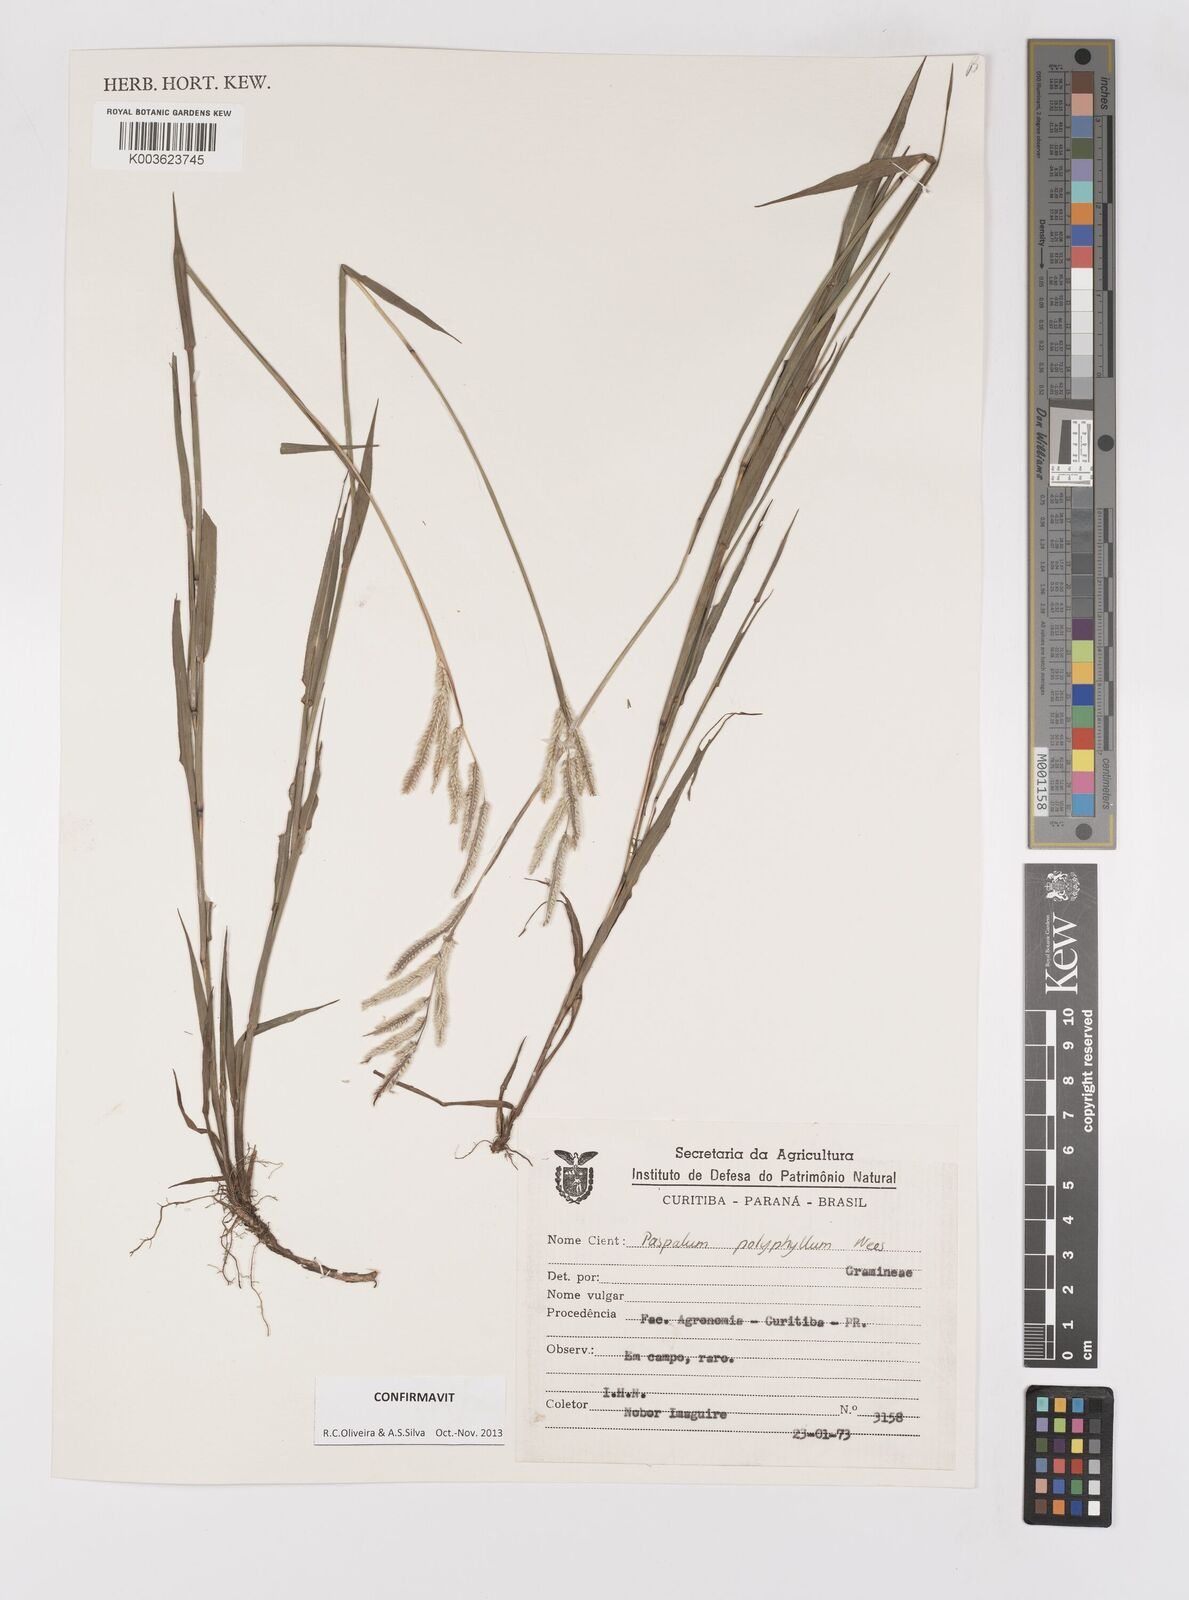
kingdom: Plantae
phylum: Tracheophyta
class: Liliopsida
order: Poales
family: Poaceae
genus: Paspalum
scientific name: Paspalum polyphyllum
